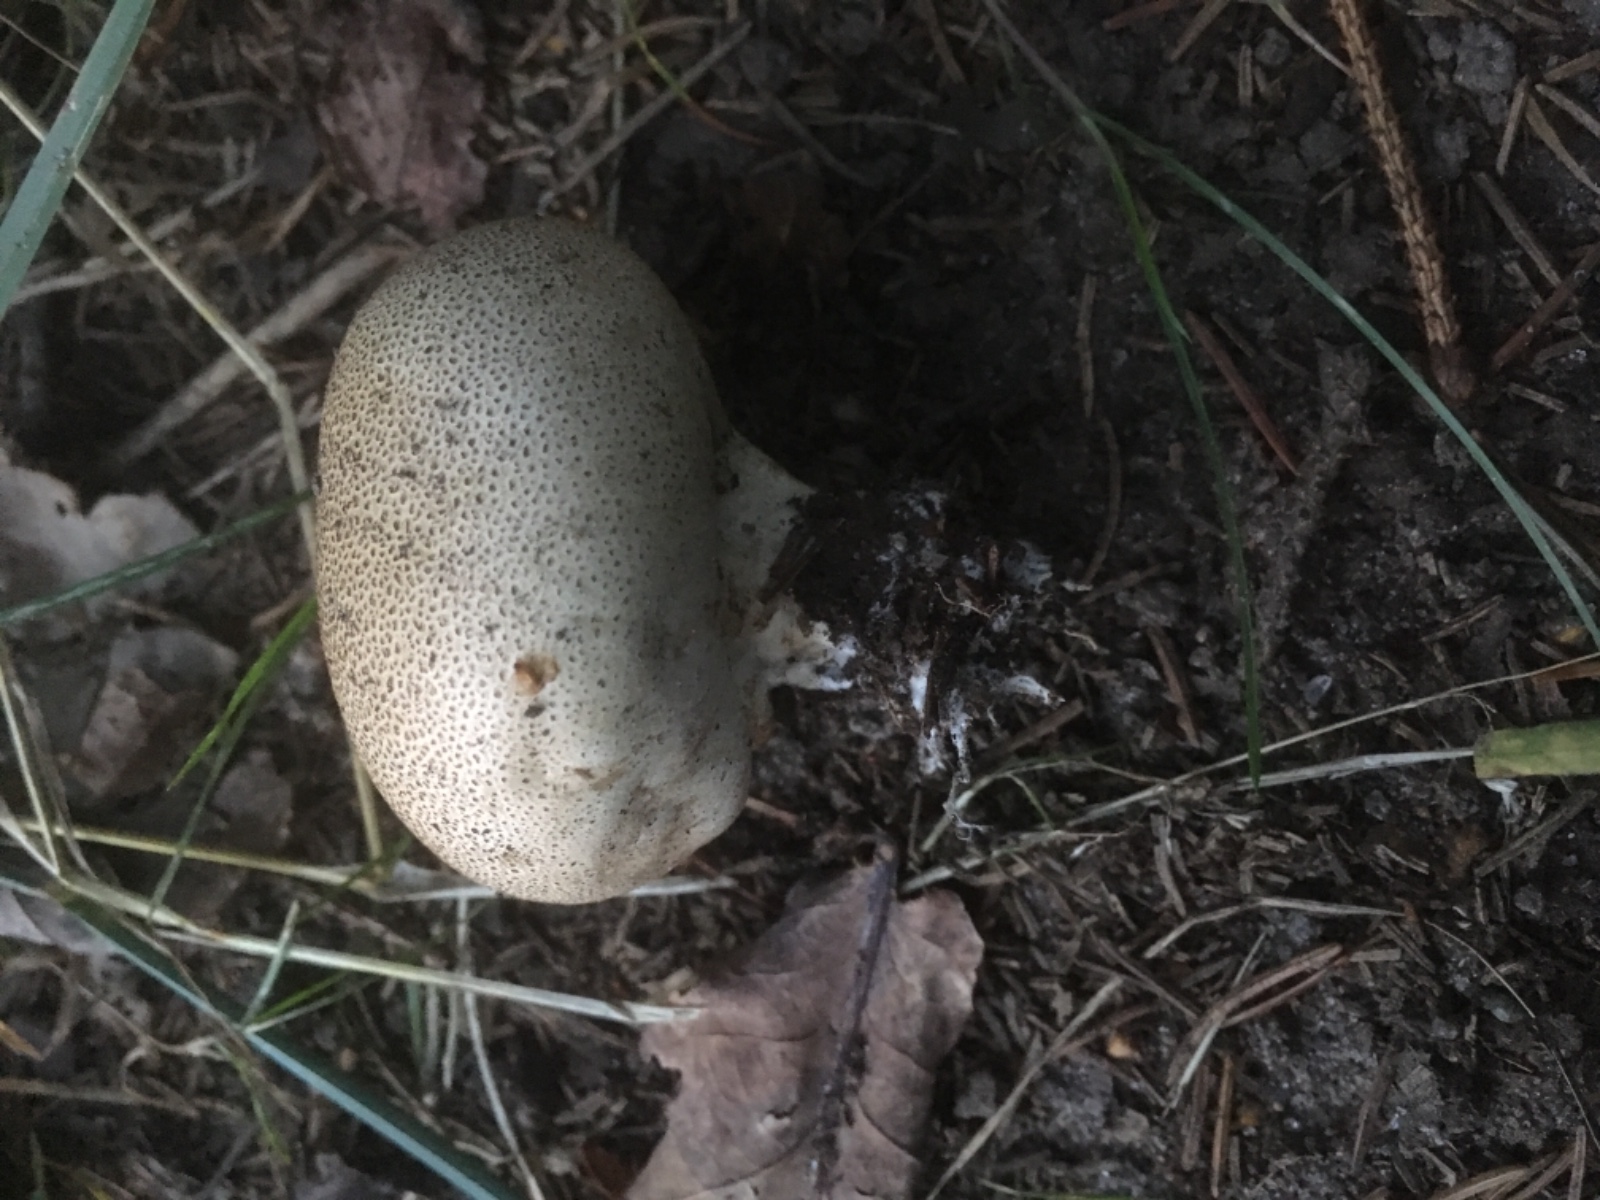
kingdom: Fungi
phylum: Basidiomycota
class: Agaricomycetes
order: Boletales
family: Sclerodermataceae
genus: Scleroderma
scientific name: Scleroderma verrucosum
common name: stilket bruskbold
